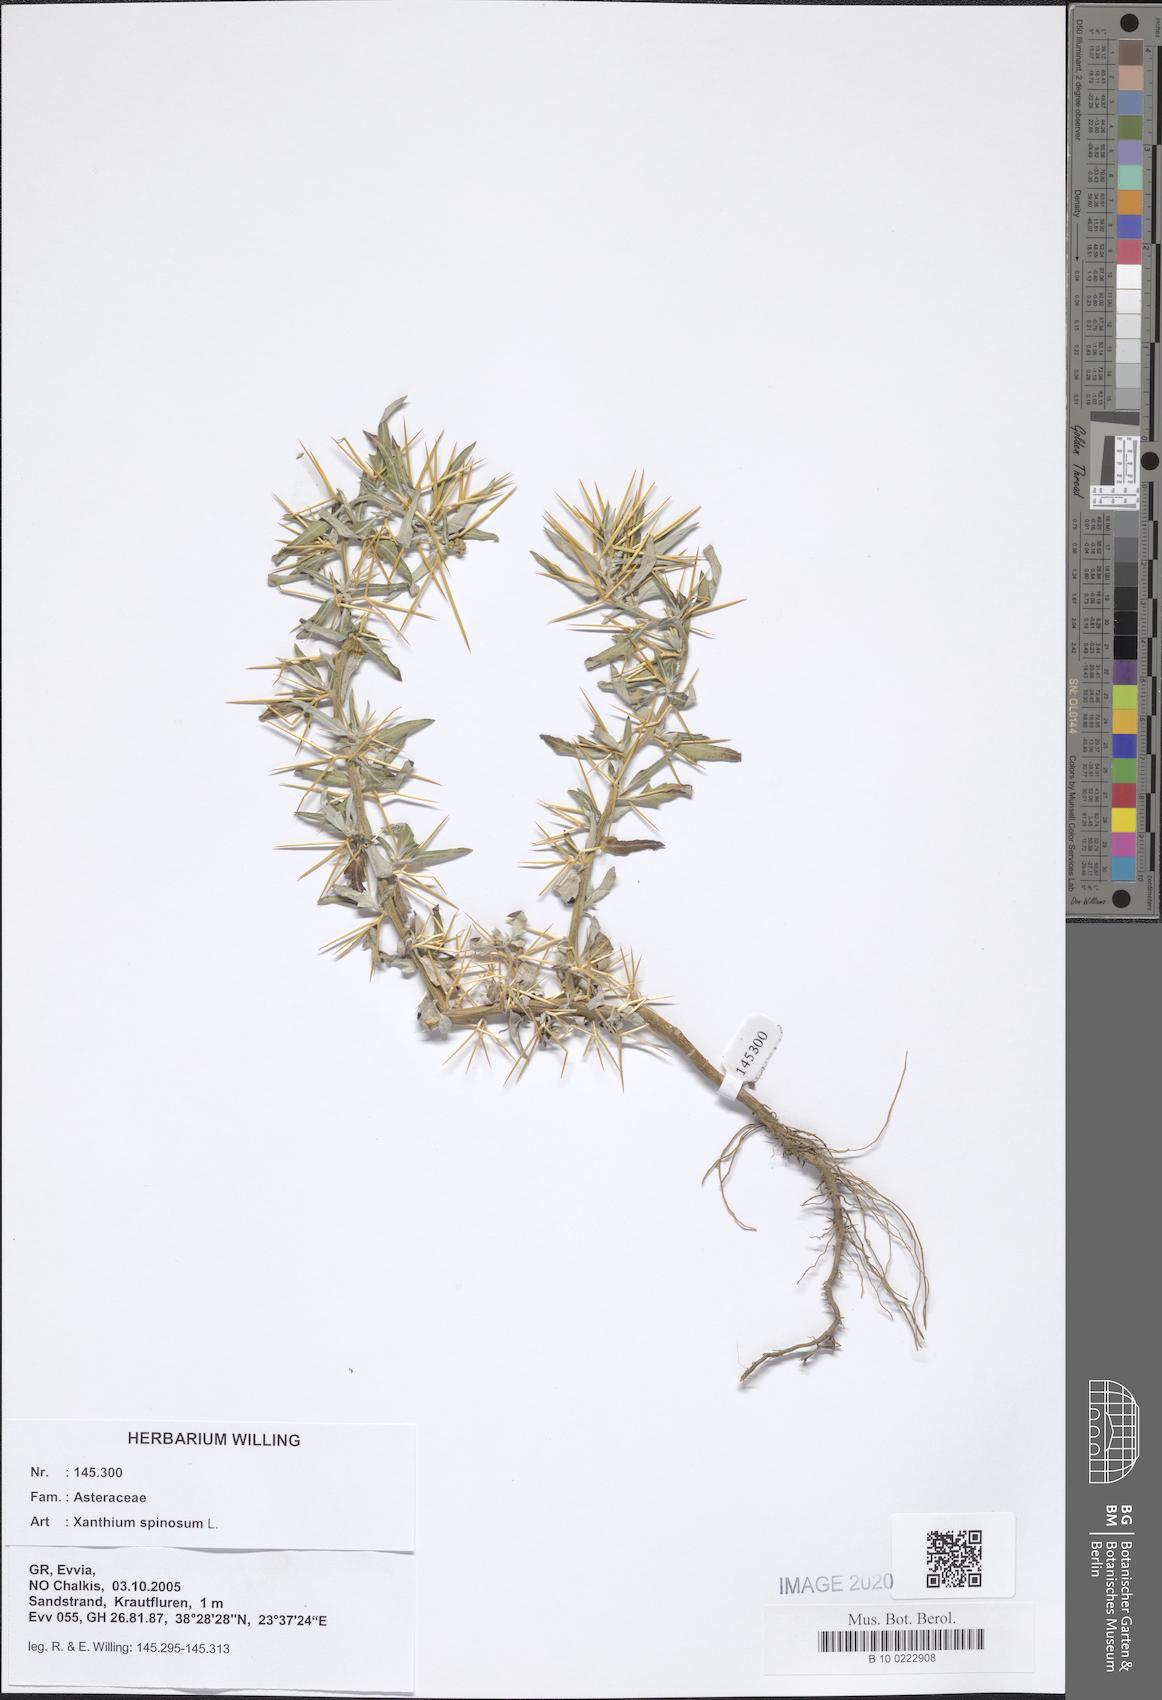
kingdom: Plantae
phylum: Tracheophyta
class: Magnoliopsida
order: Asterales
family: Asteraceae
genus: Xanthium
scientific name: Xanthium spinosum
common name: Spiny cocklebur
